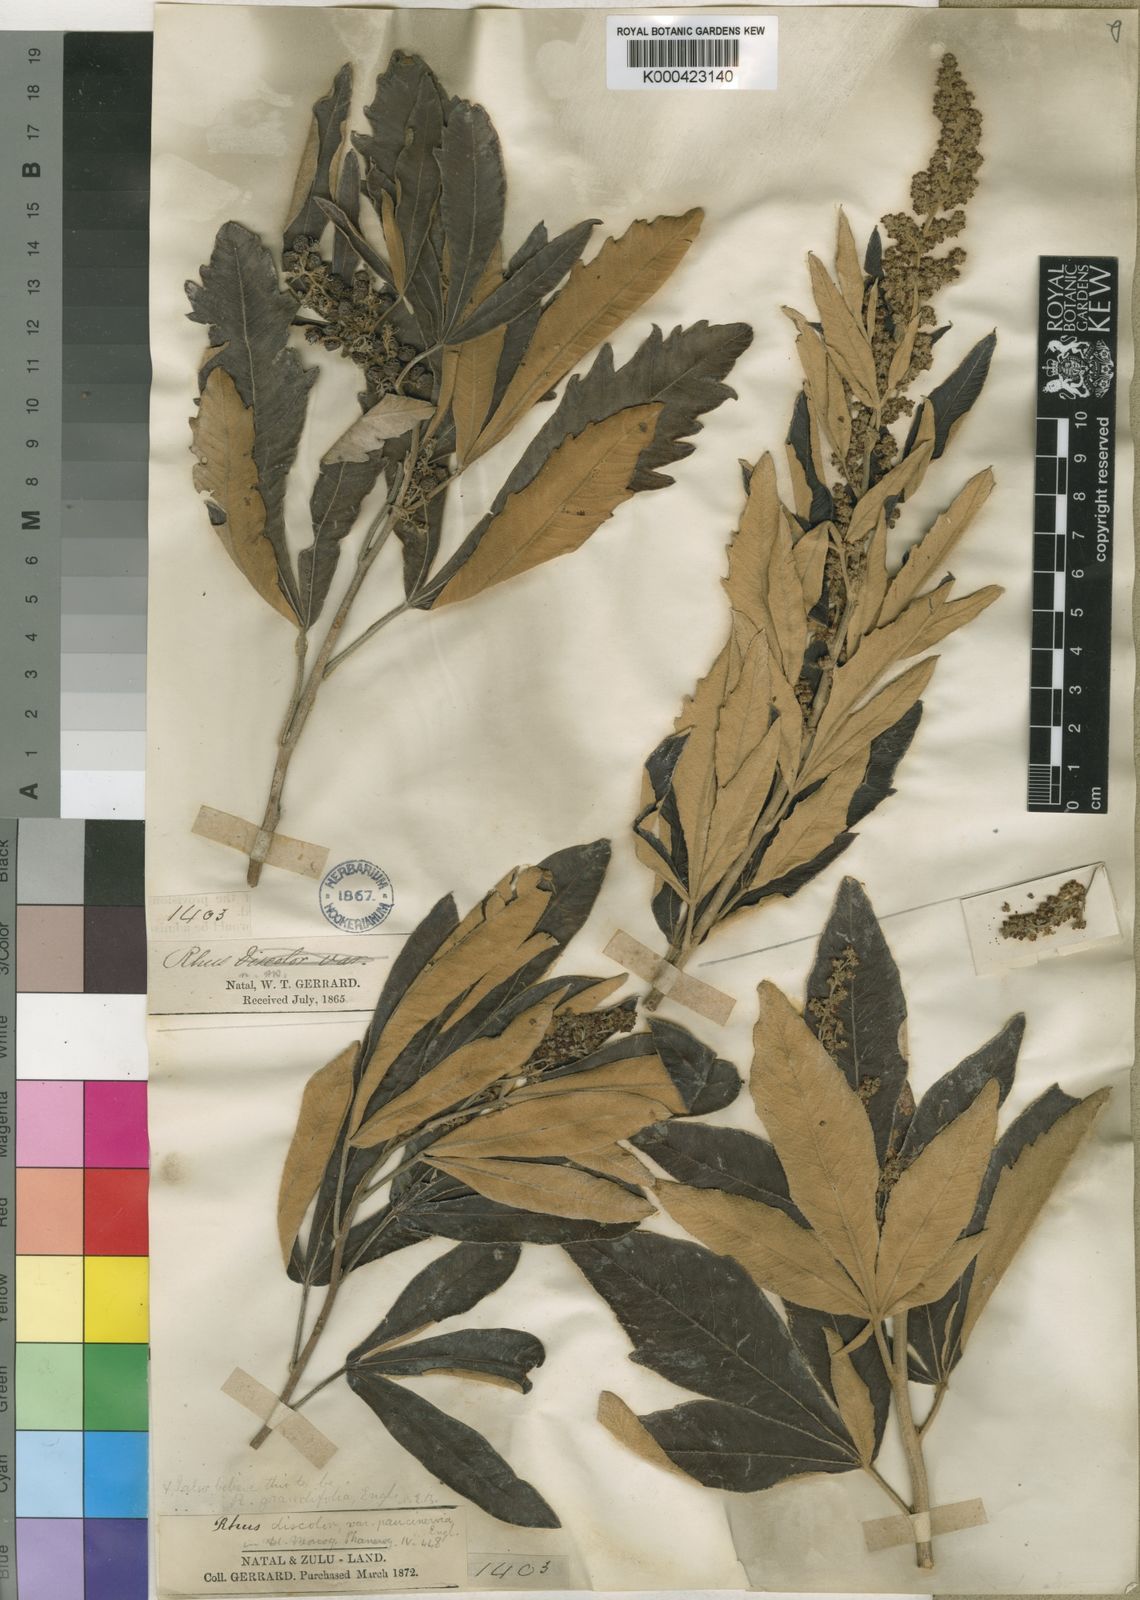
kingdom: Plantae
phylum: Tracheophyta
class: Magnoliopsida
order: Sapindales
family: Anacardiaceae
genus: Rhus
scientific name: Rhus
